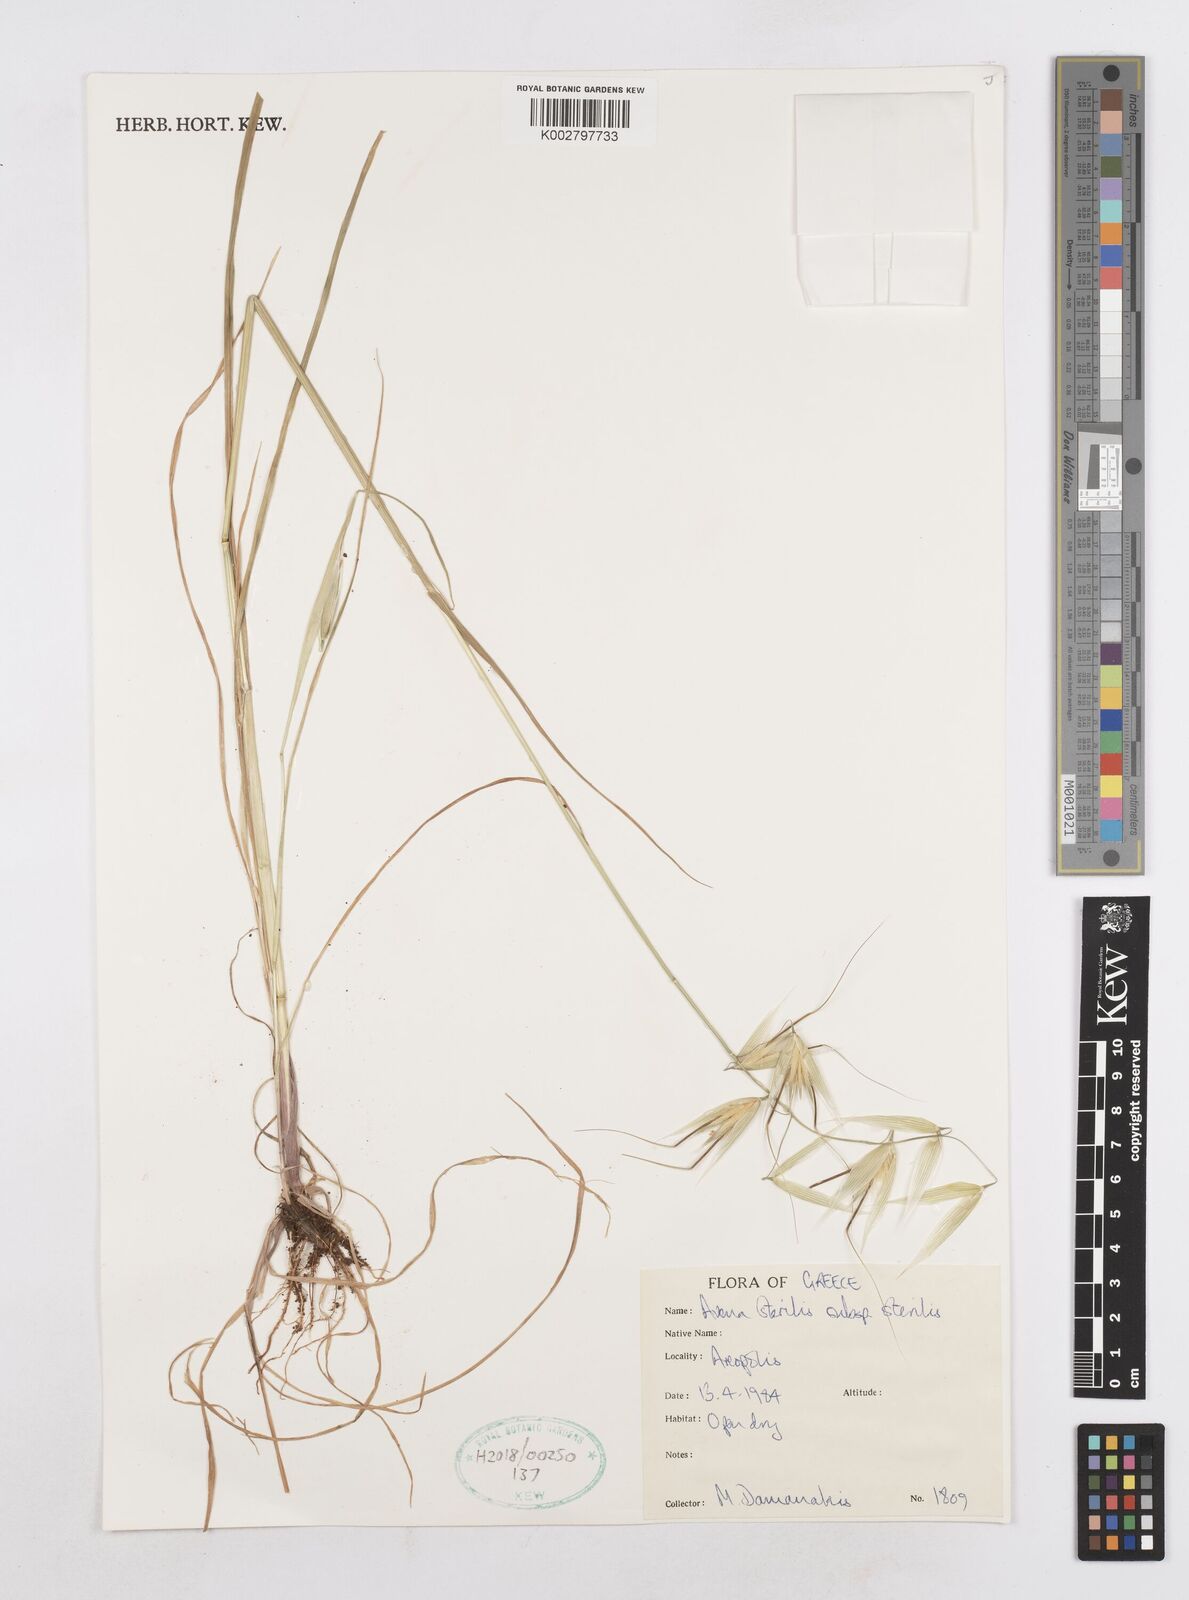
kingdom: Plantae
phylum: Tracheophyta
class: Liliopsida
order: Poales
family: Poaceae
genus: Avena
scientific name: Avena sterilis
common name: Animated oat
